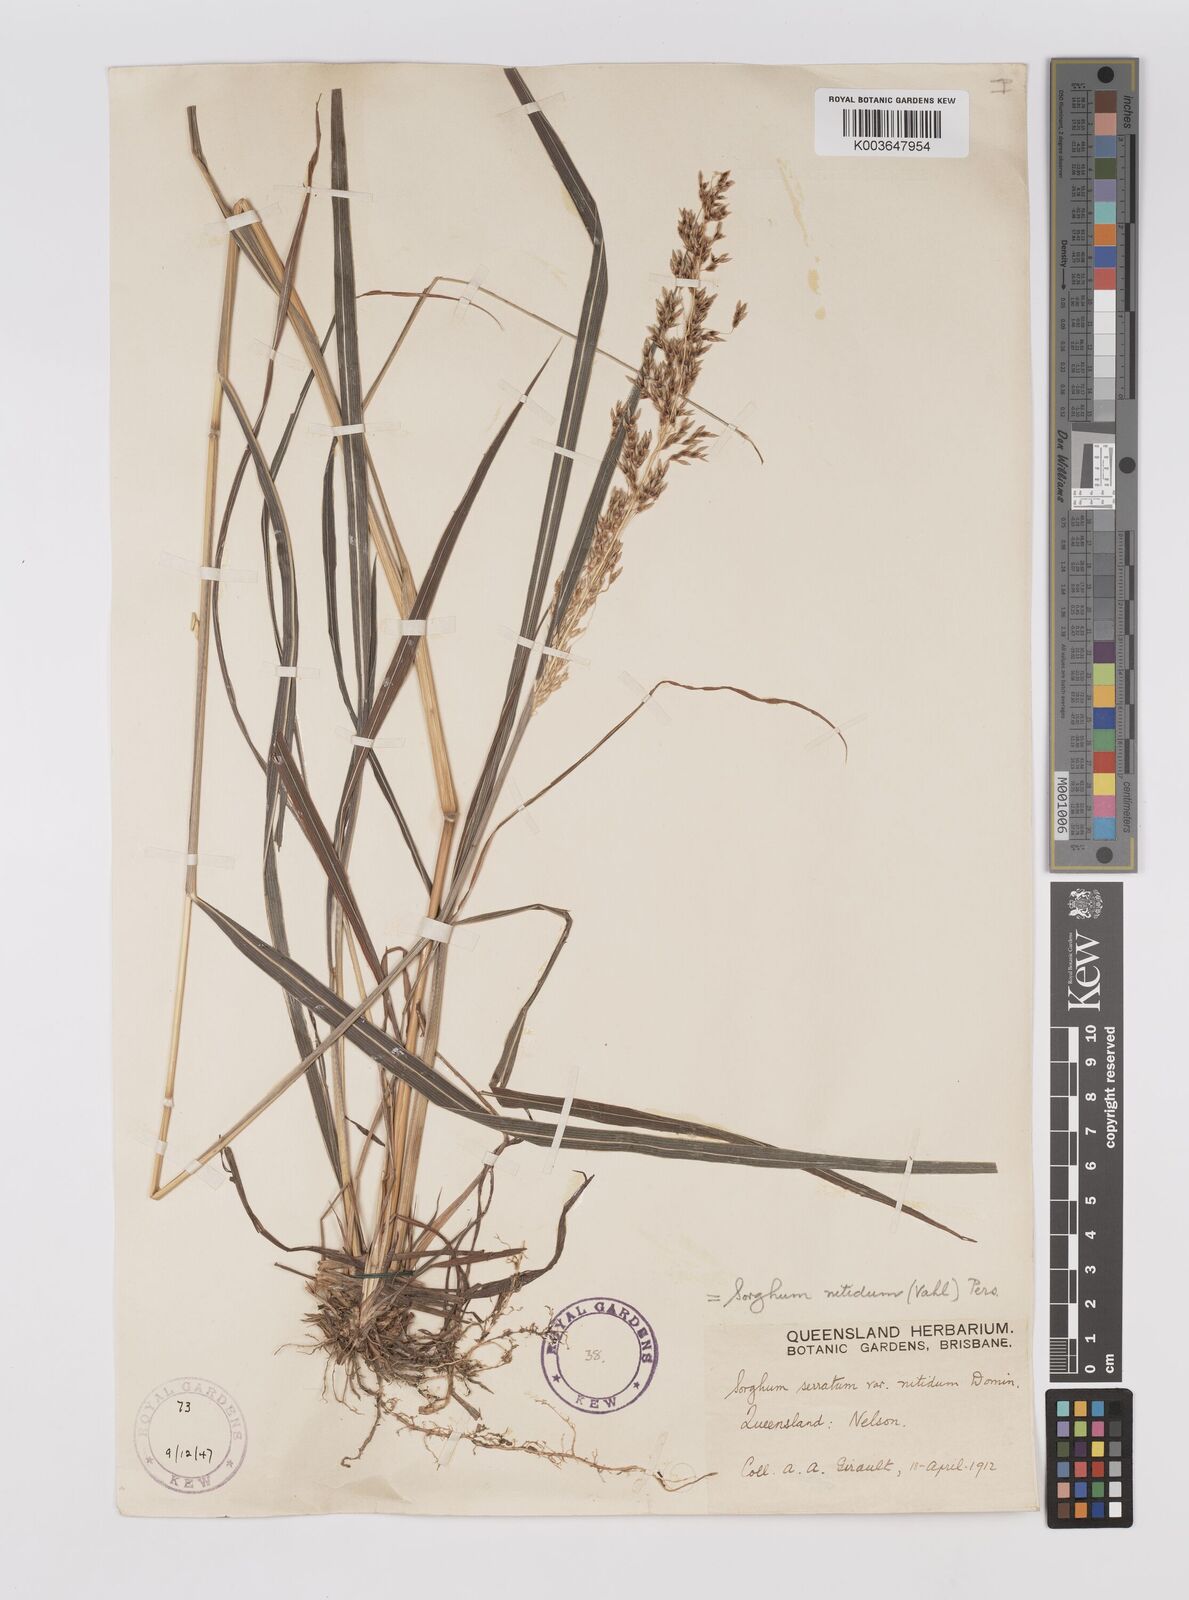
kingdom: Plantae
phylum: Tracheophyta
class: Liliopsida
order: Poales
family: Poaceae
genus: Sorghum
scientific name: Sorghum nitidum
